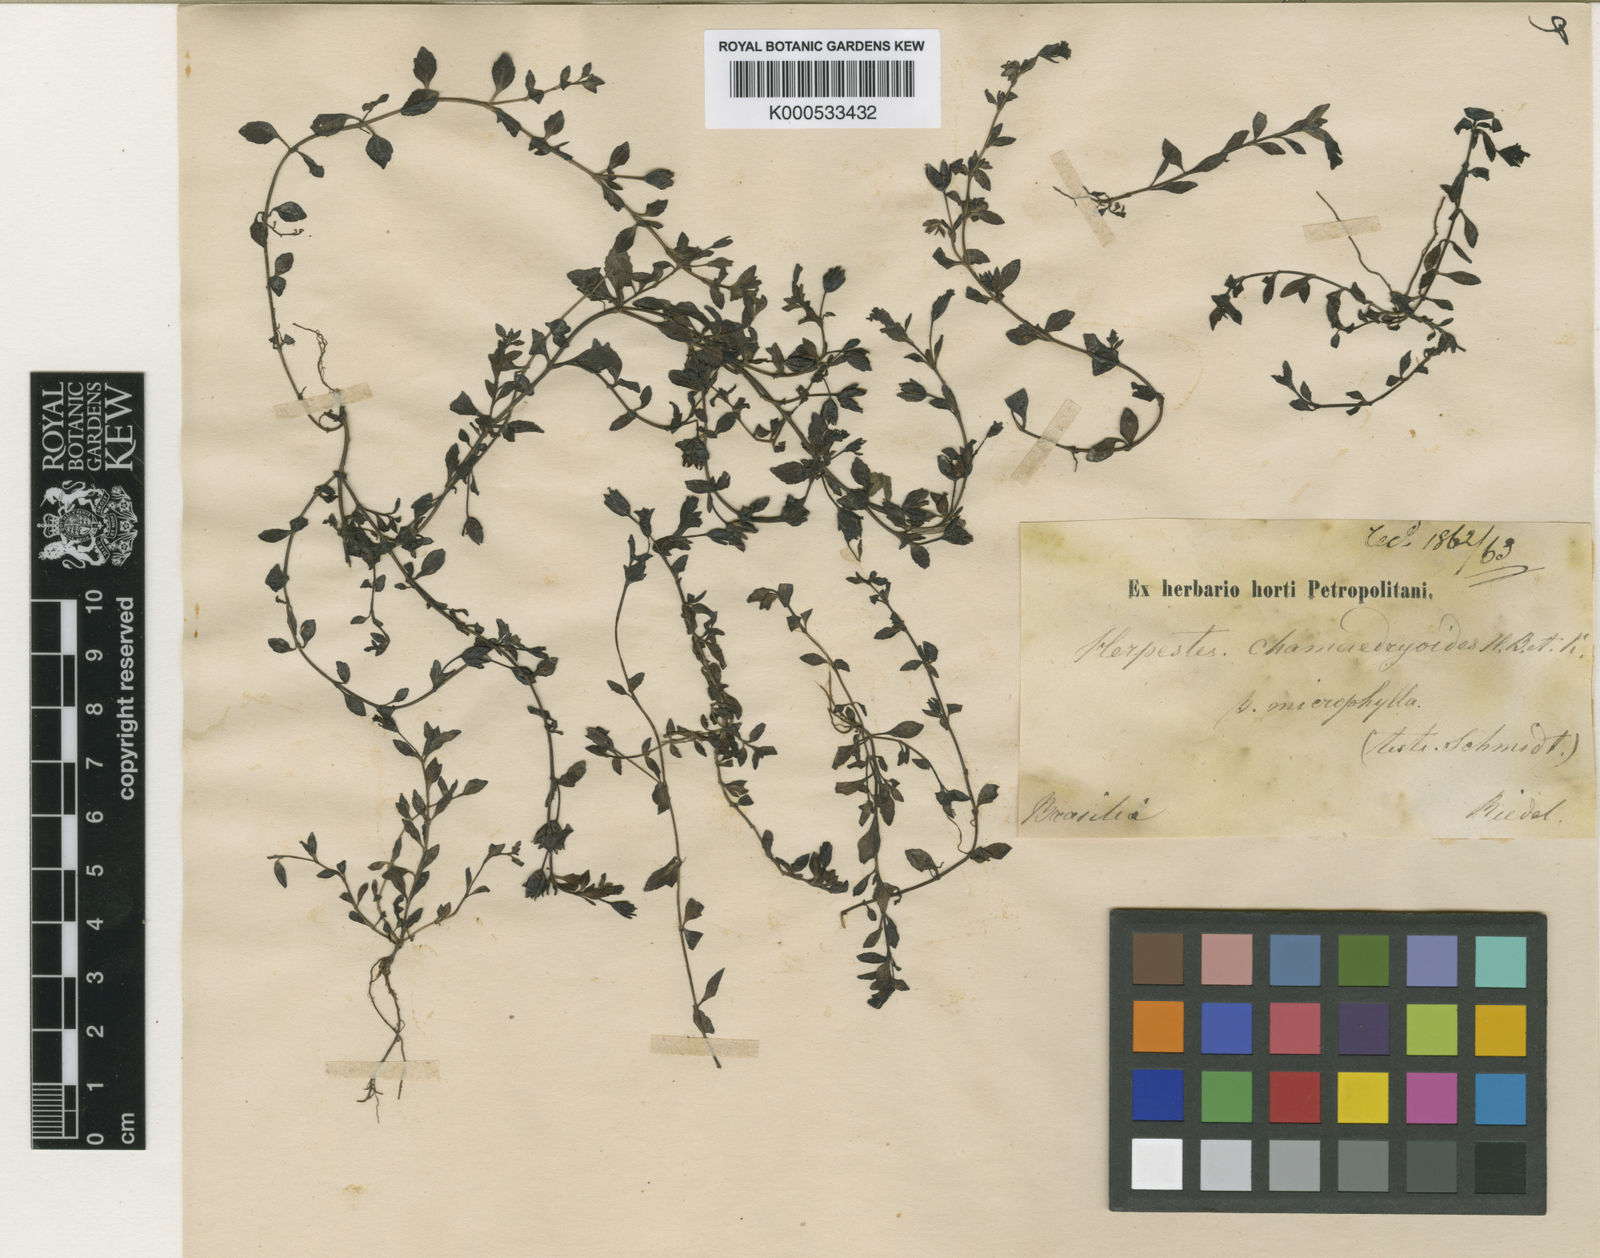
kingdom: Plantae
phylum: Tracheophyta
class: Magnoliopsida
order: Lamiales
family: Plantaginaceae
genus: Mecardonia
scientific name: Mecardonia procumbens
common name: Baby jump-up
